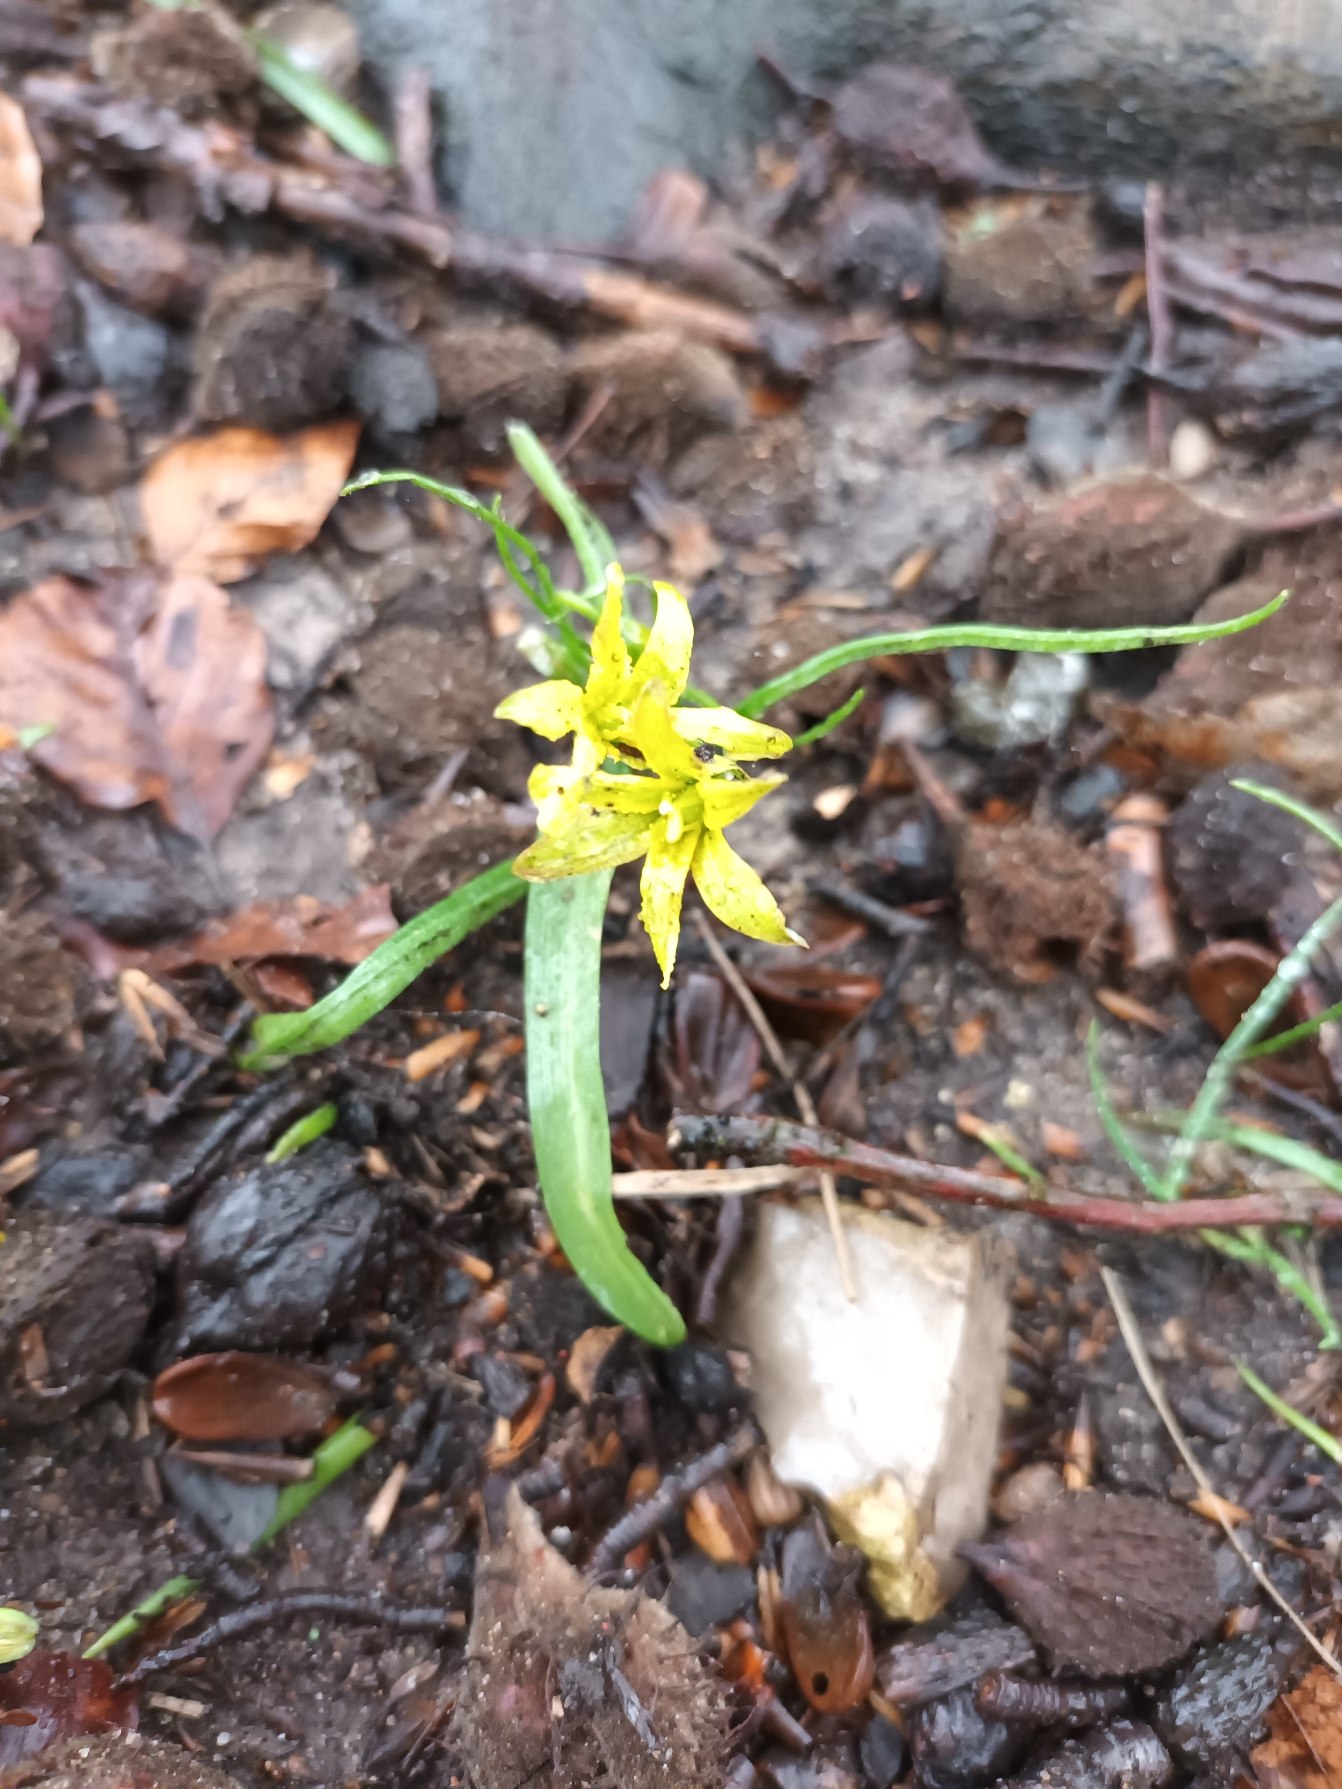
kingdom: Plantae
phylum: Tracheophyta
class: Liliopsida
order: Liliales
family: Liliaceae
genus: Gagea
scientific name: Gagea lutea
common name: Almindelig guldstjerne
